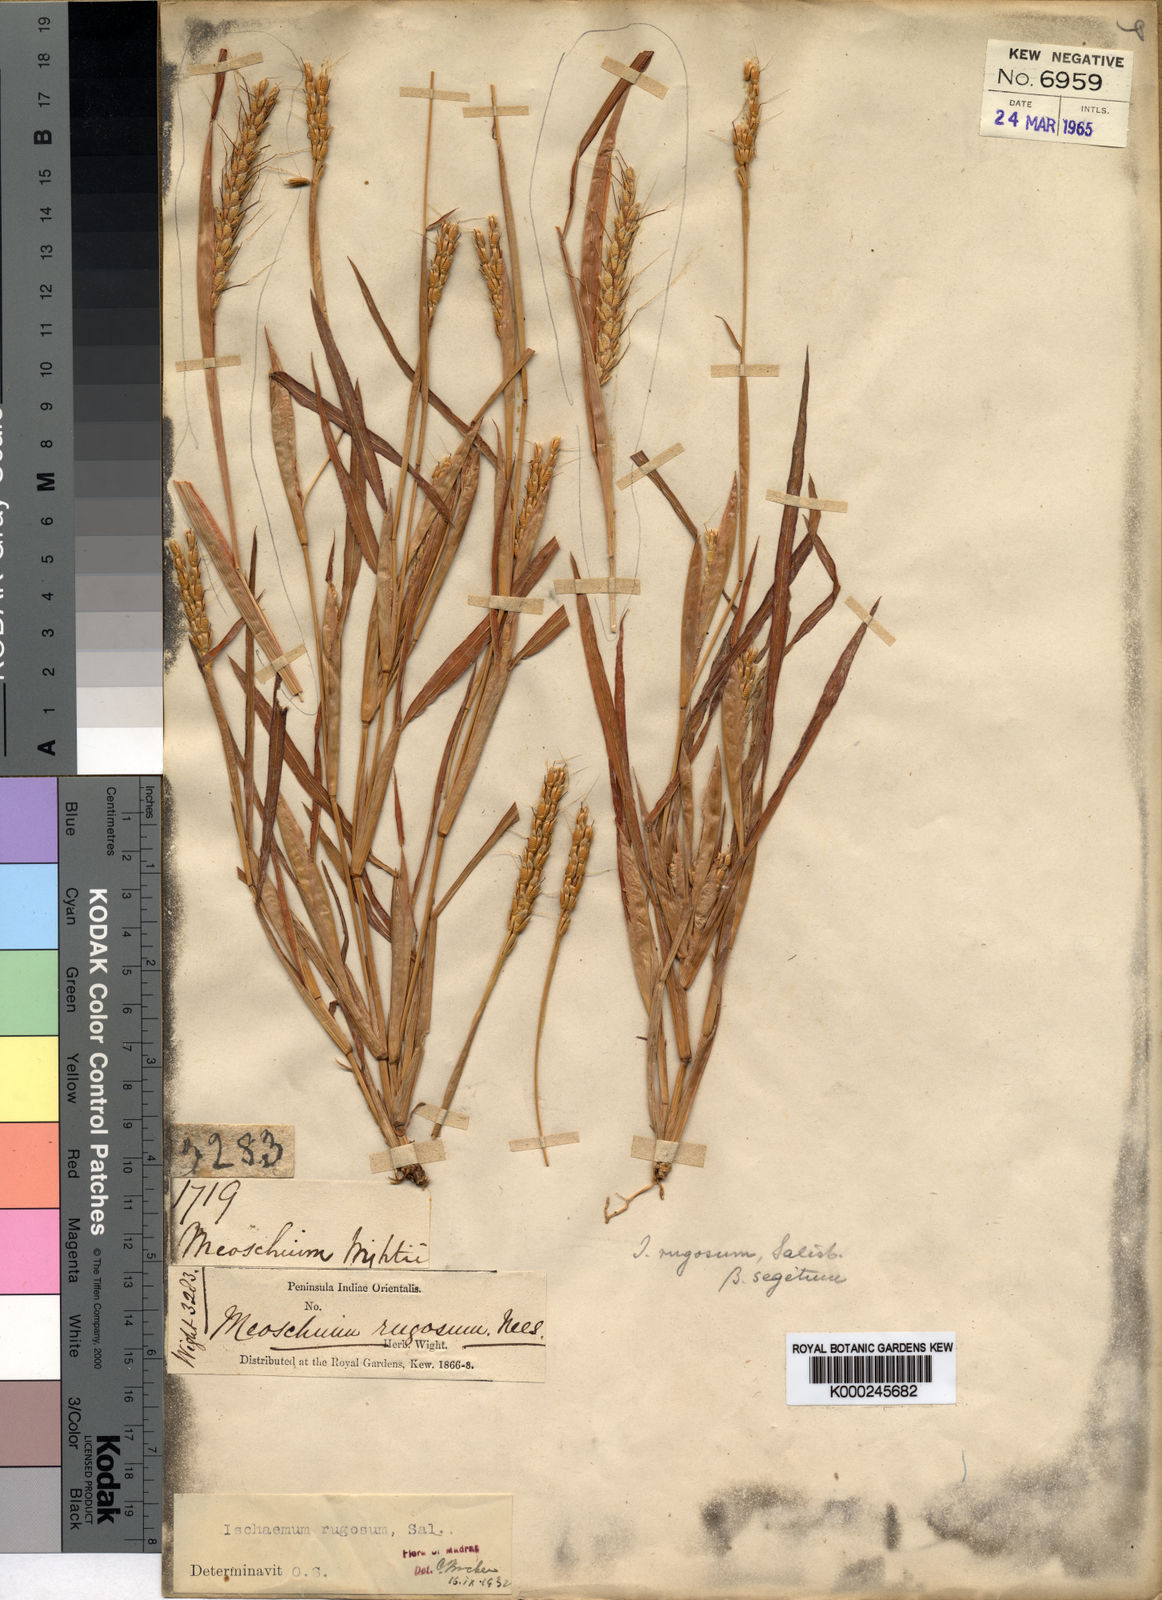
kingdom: Plantae
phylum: Tracheophyta
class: Liliopsida
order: Poales
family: Poaceae
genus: Ischaemum
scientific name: Ischaemum rugosum
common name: Saramatta grass
